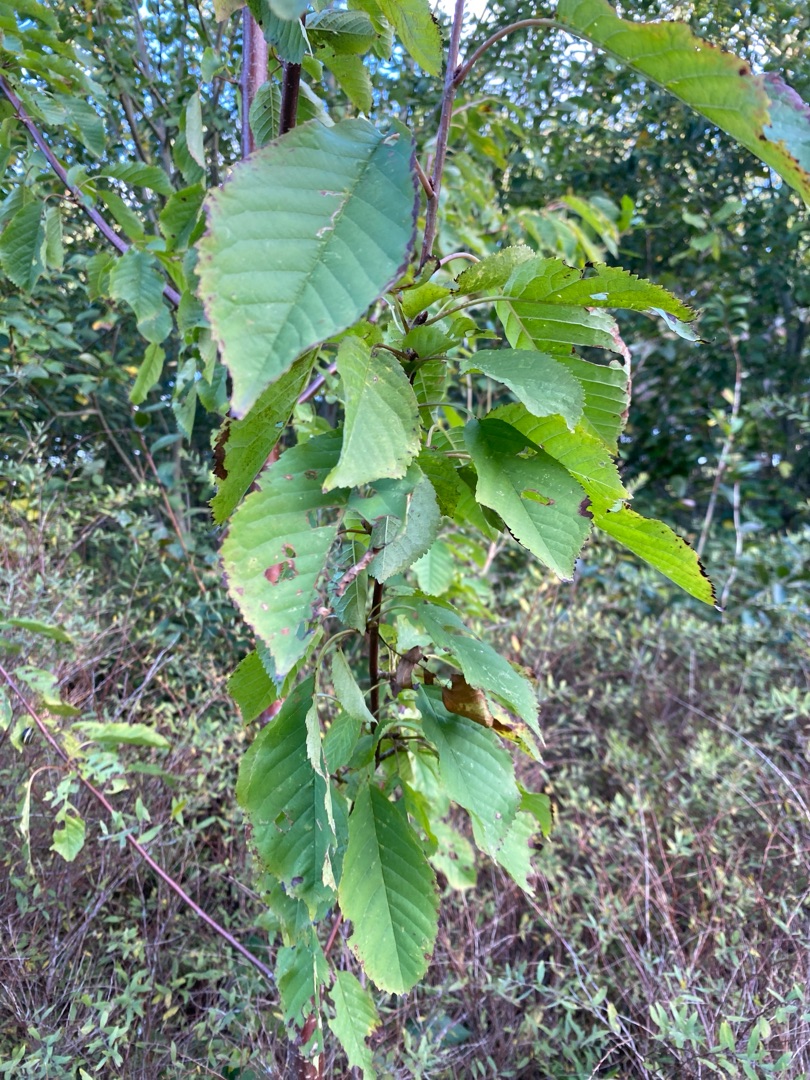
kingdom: Plantae
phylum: Tracheophyta
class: Magnoliopsida
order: Rosales
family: Rosaceae
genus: Prunus
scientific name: Prunus avium
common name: Fugle-kirsebær
